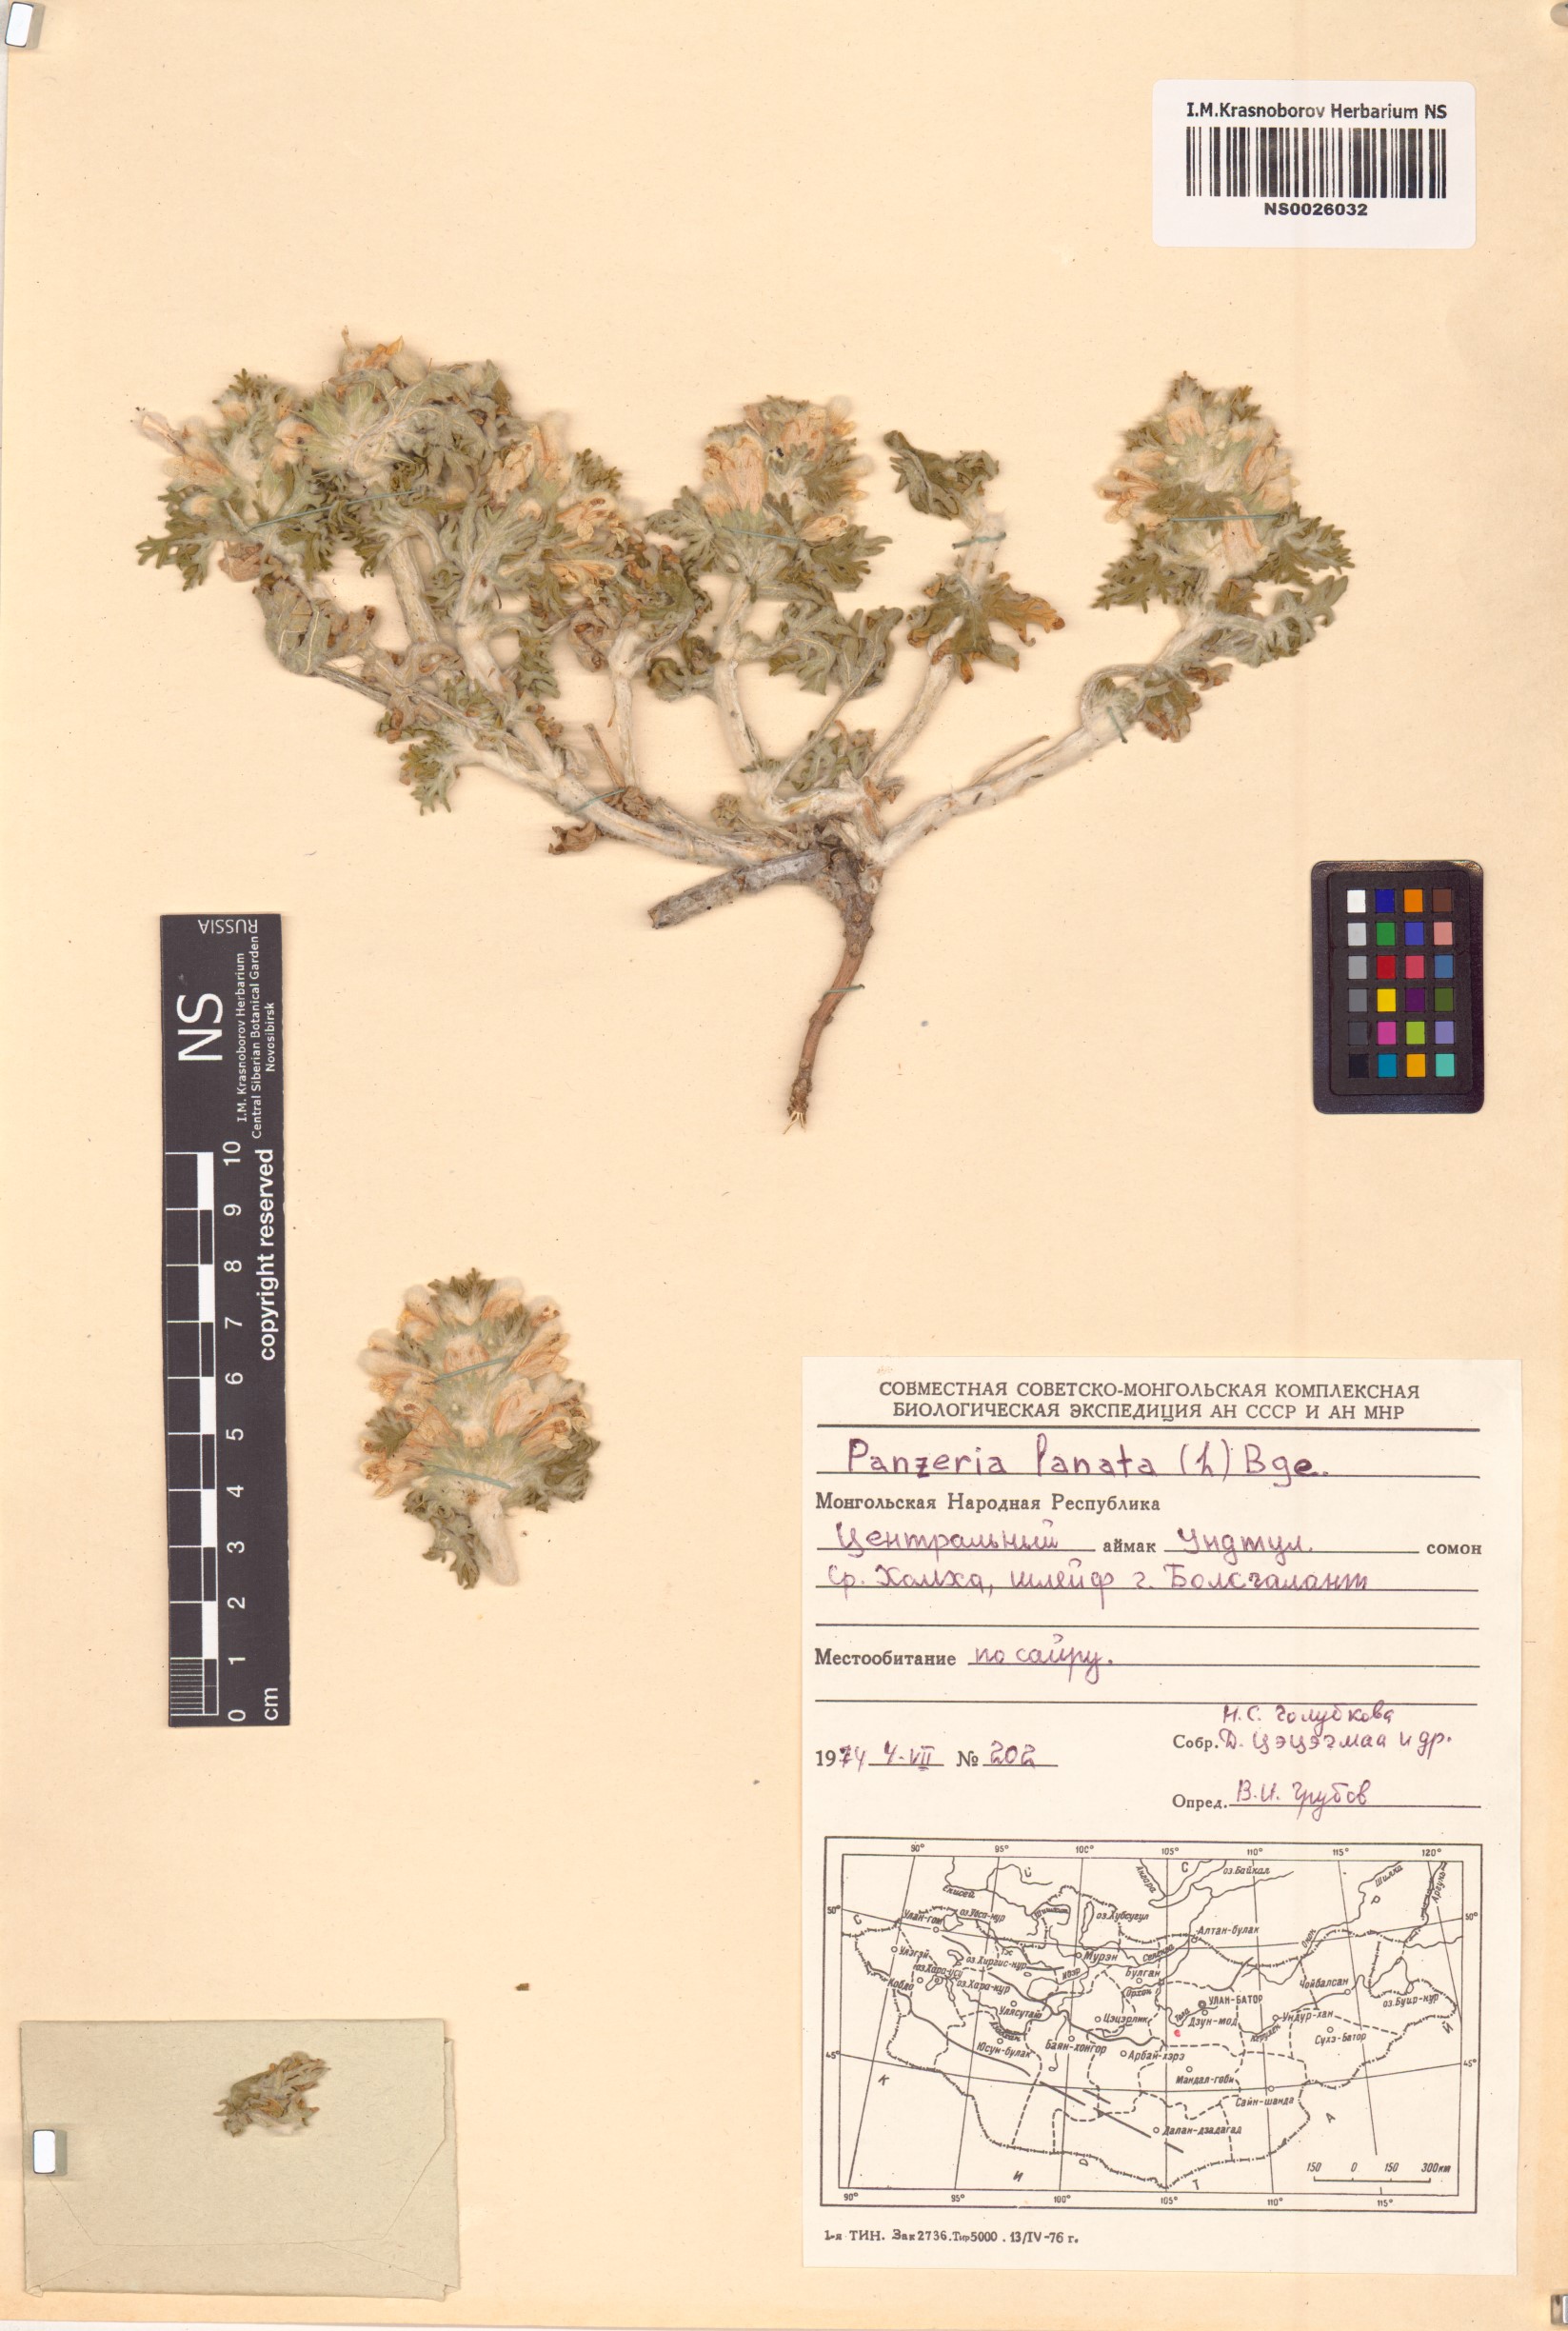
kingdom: Plantae
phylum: Tracheophyta
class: Magnoliopsida
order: Lamiales
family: Lamiaceae
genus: Panzerina
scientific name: Panzerina lanata
